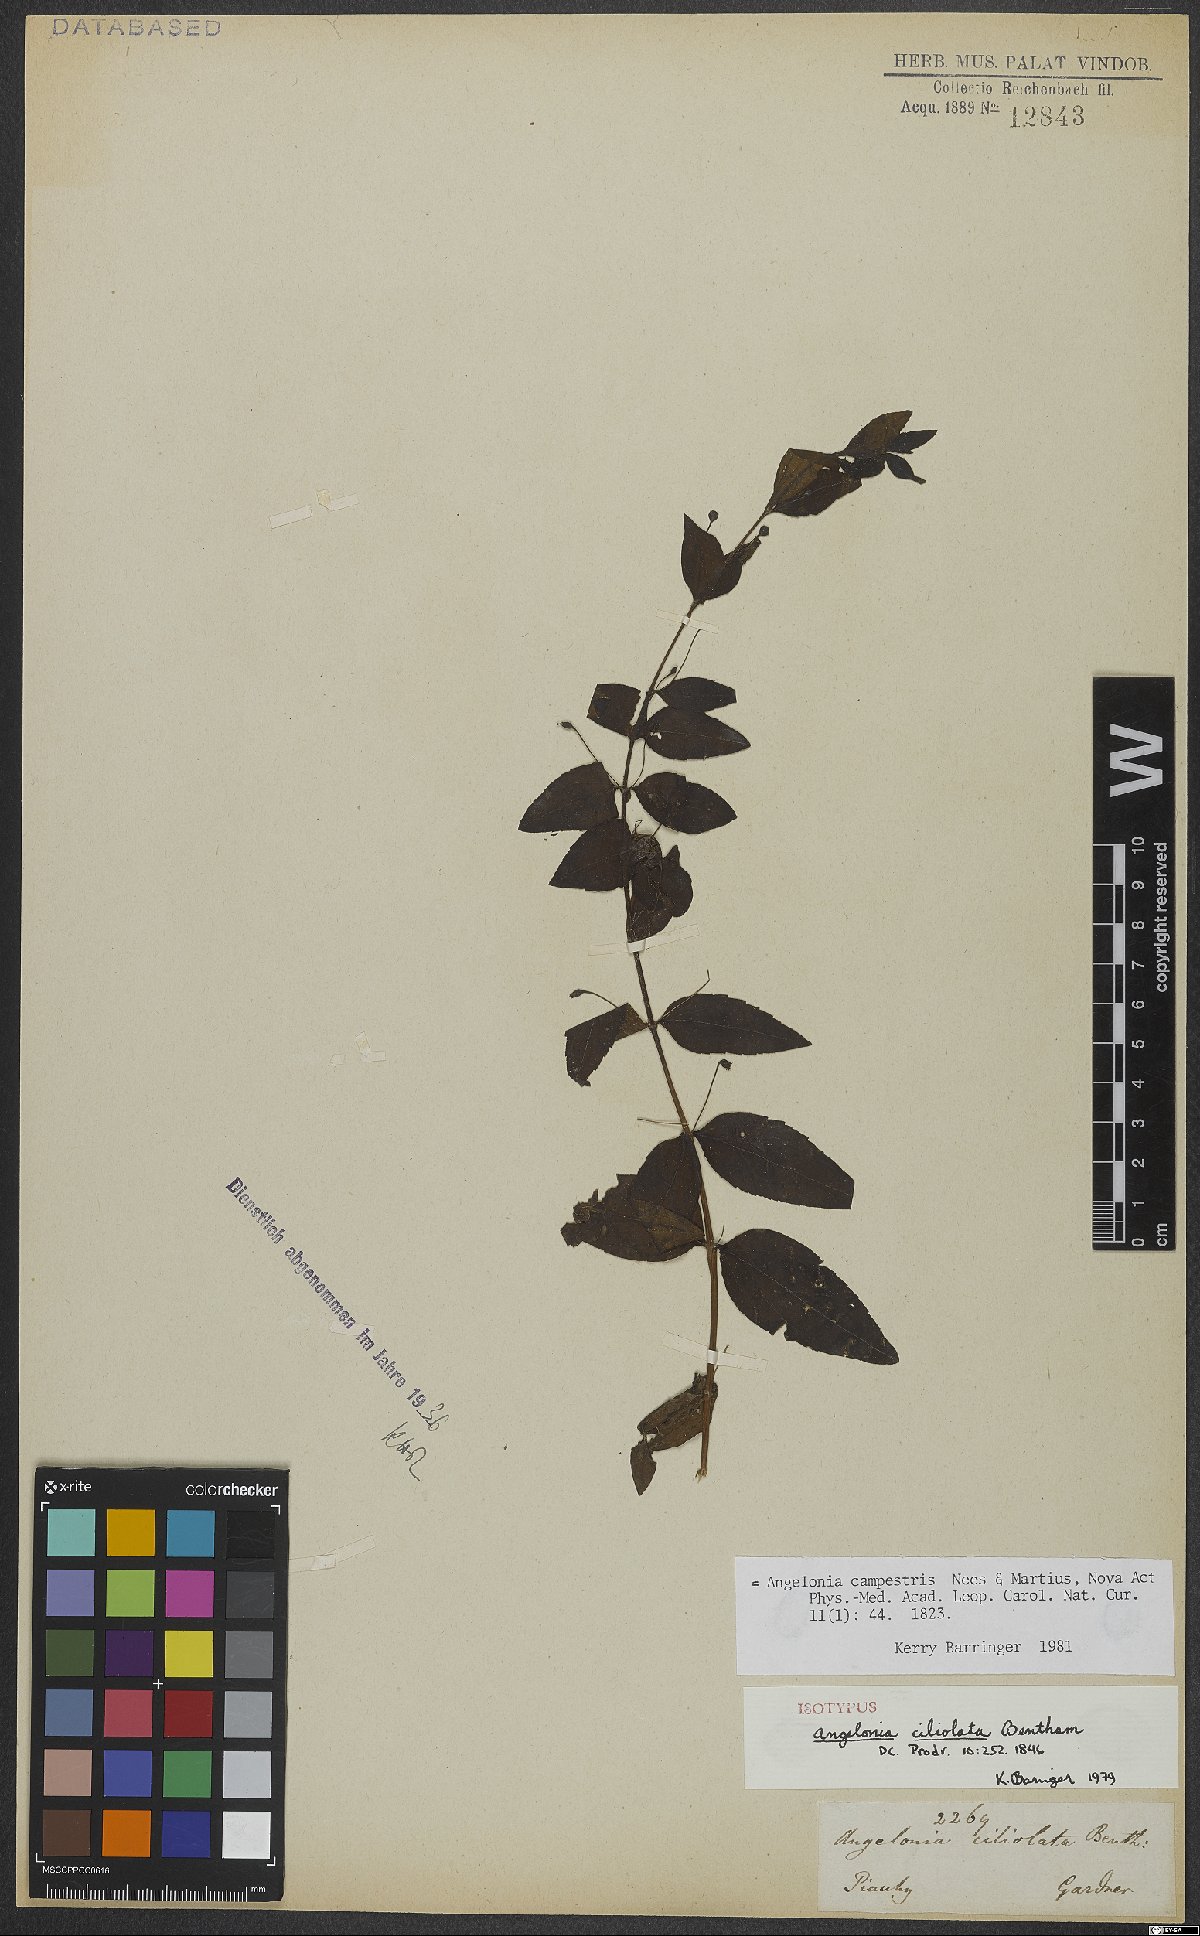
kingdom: Plantae
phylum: Tracheophyta
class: Magnoliopsida
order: Lamiales
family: Plantaginaceae
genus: Angelonia
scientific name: Angelonia campestris
